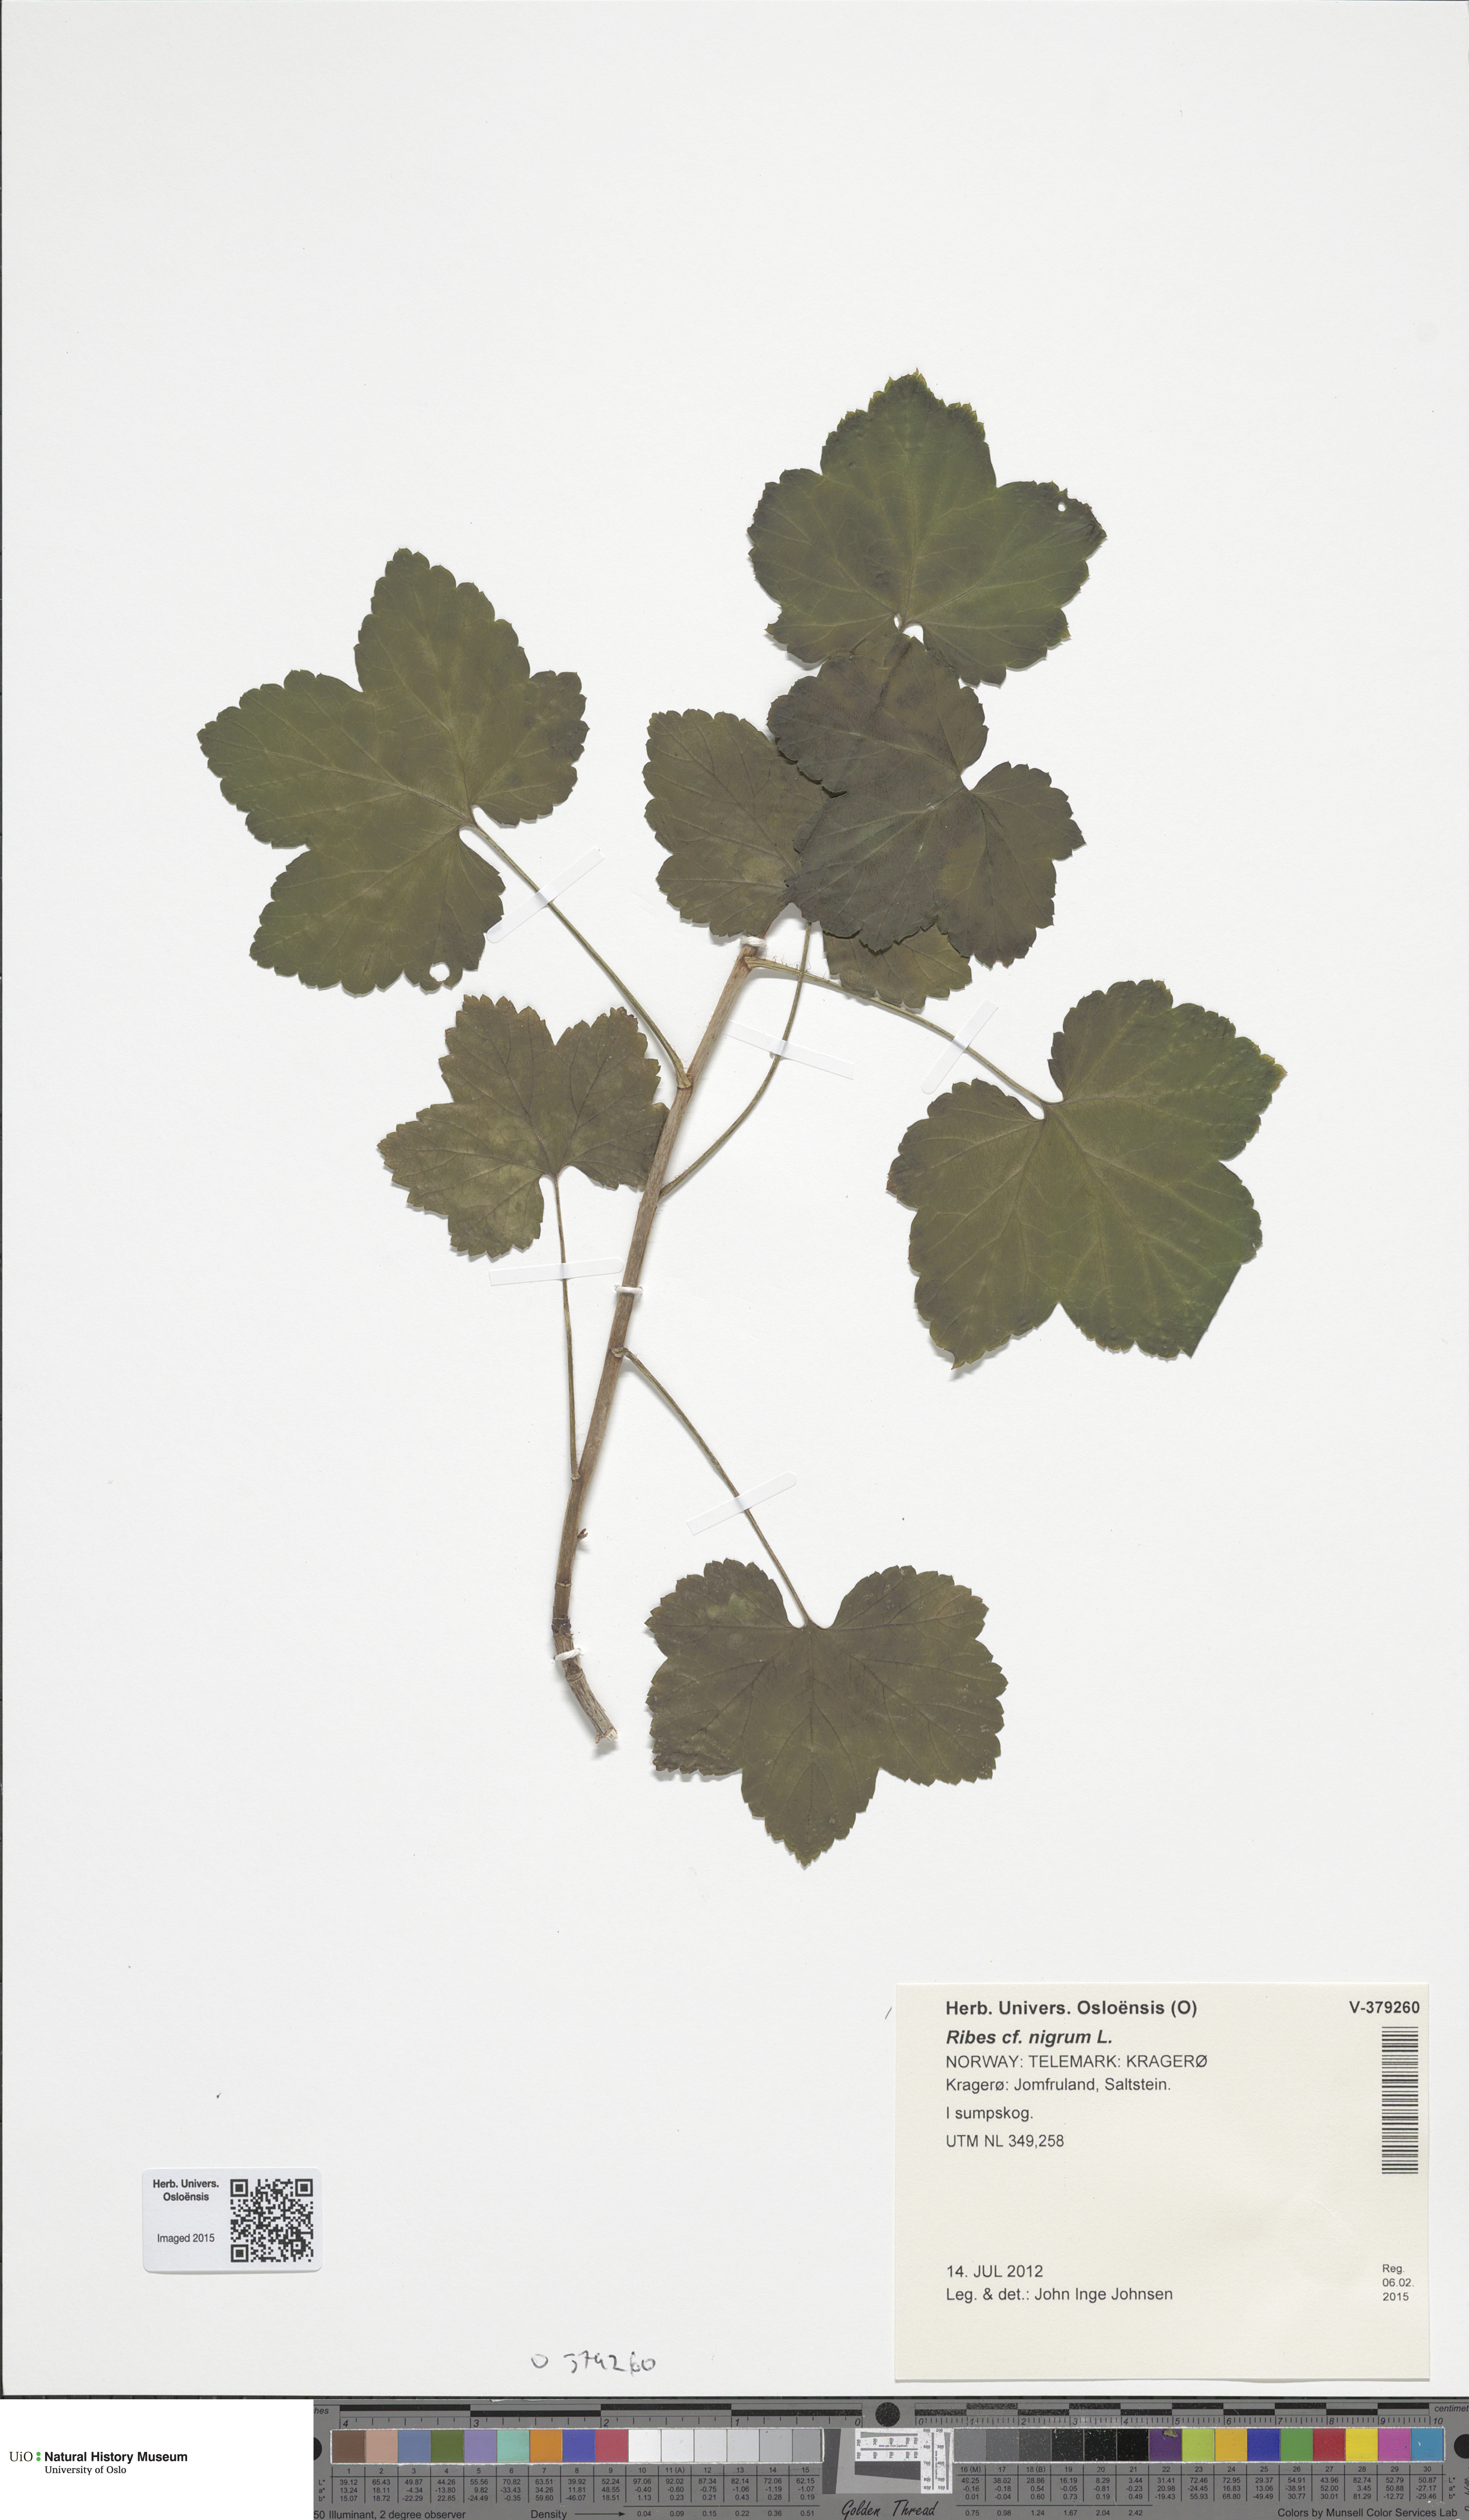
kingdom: Plantae
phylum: Tracheophyta
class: Magnoliopsida
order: Saxifragales
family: Grossulariaceae
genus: Ribes
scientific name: Ribes spicatum
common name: Downy currant
